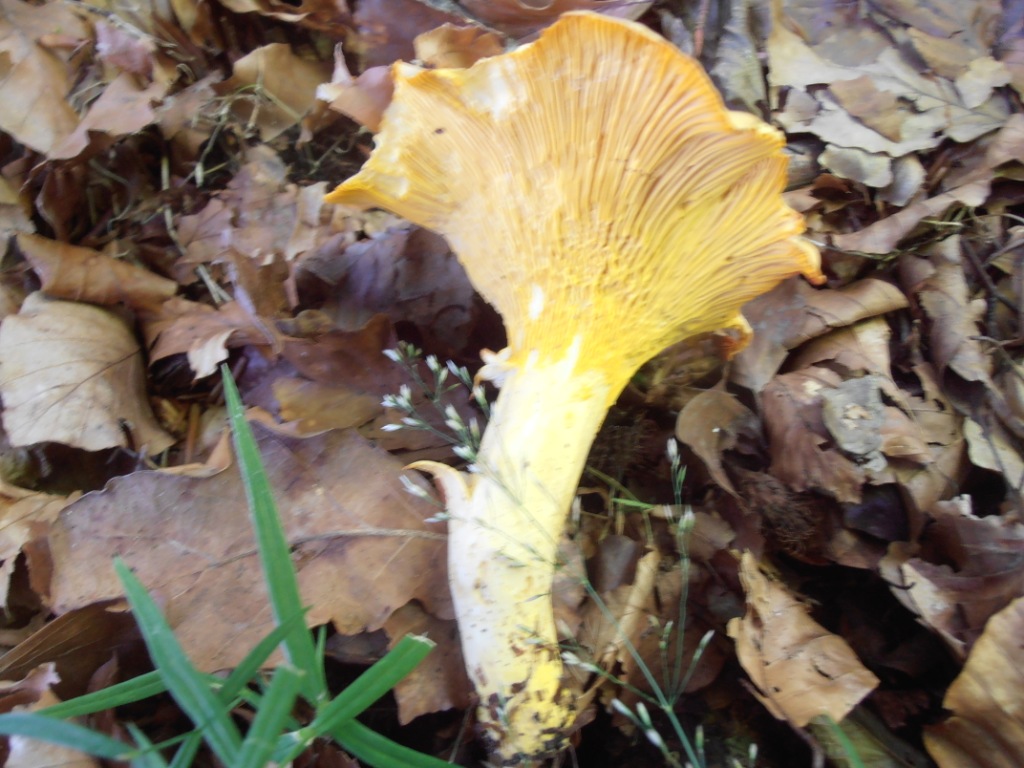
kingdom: Fungi
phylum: Basidiomycota
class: Agaricomycetes
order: Cantharellales
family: Hydnaceae
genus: Cantharellus
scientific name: Cantharellus amethysteus
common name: ametyst-kantarel
